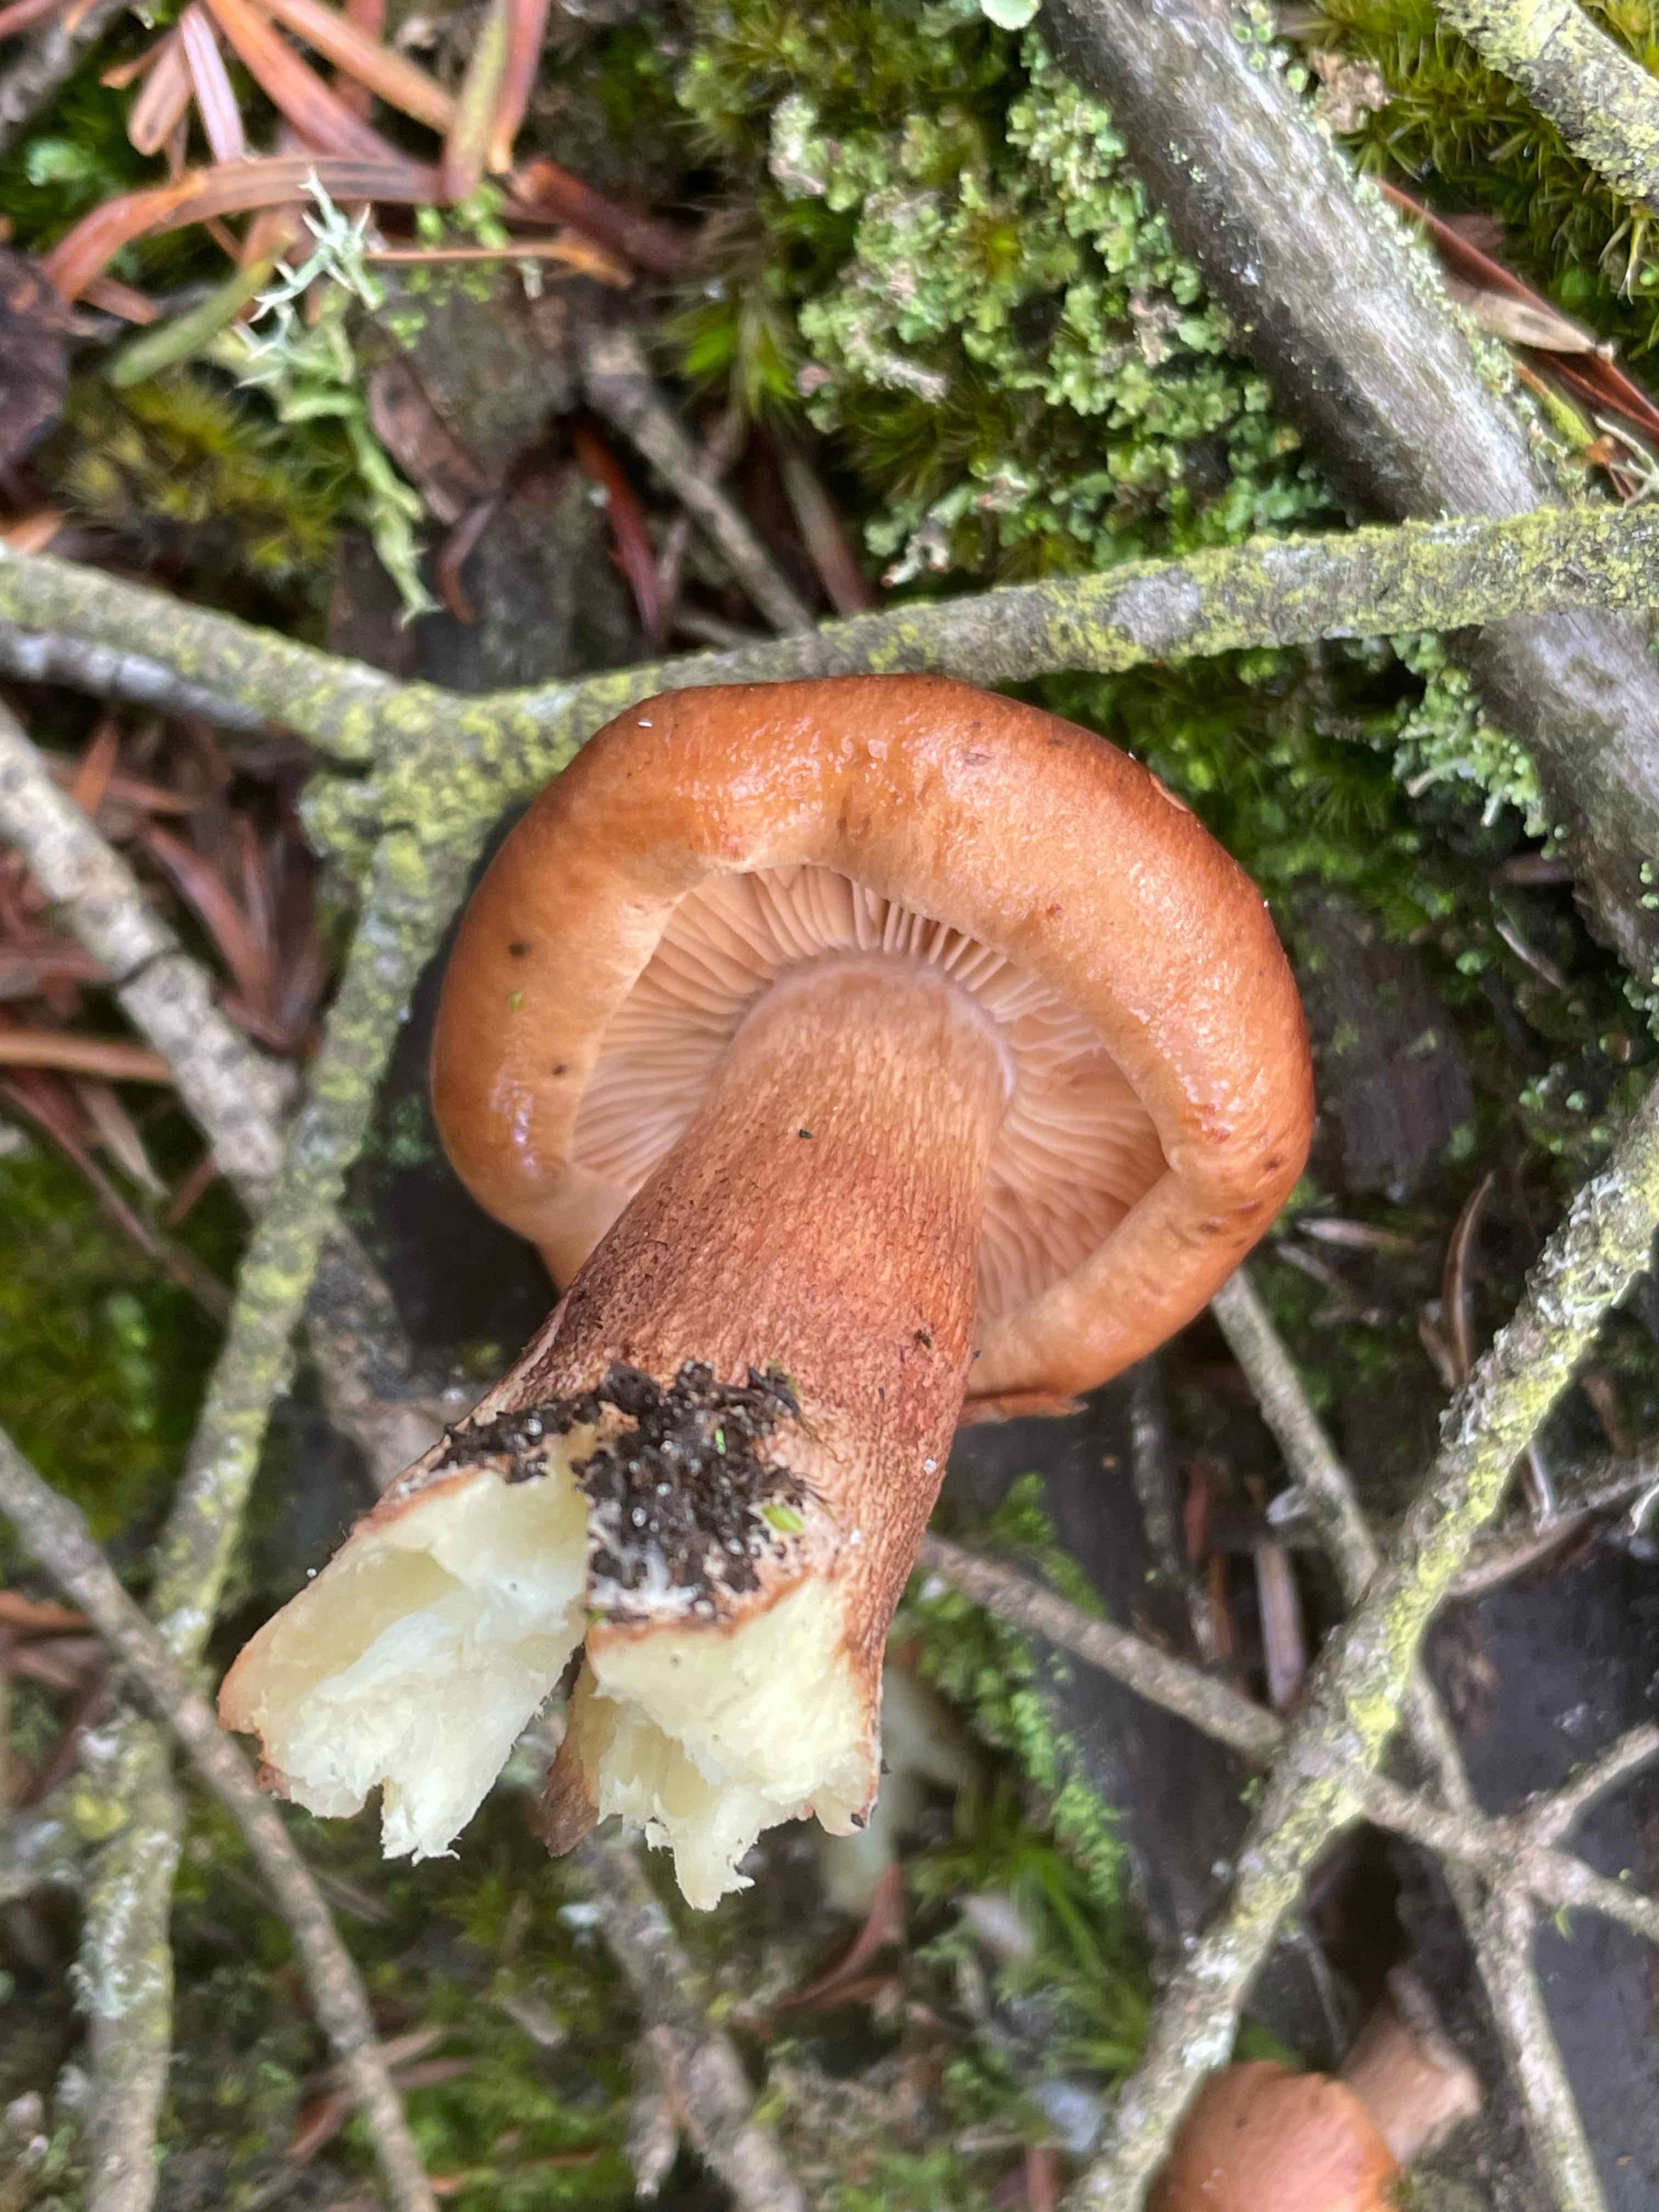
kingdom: Fungi
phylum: Basidiomycota
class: Agaricomycetes
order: Agaricales
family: Tricholomataceae
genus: Tricholoma
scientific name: Tricholoma fulvum
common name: birke-ridderhat
